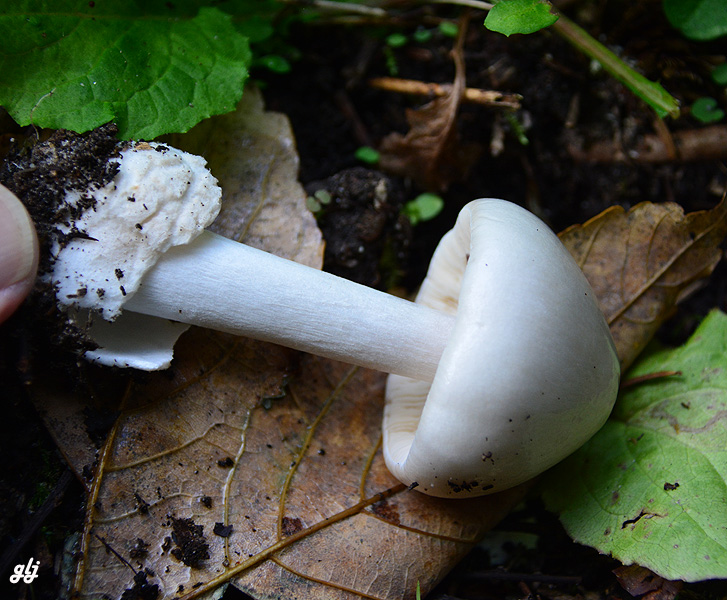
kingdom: Fungi
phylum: Basidiomycota
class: Agaricomycetes
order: Agaricales
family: Pluteaceae
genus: Volvopluteus
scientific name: Volvopluteus gloiocephalus
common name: høj posesvamp
